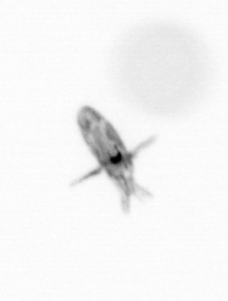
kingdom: Animalia
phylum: Arthropoda
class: Copepoda
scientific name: Copepoda
